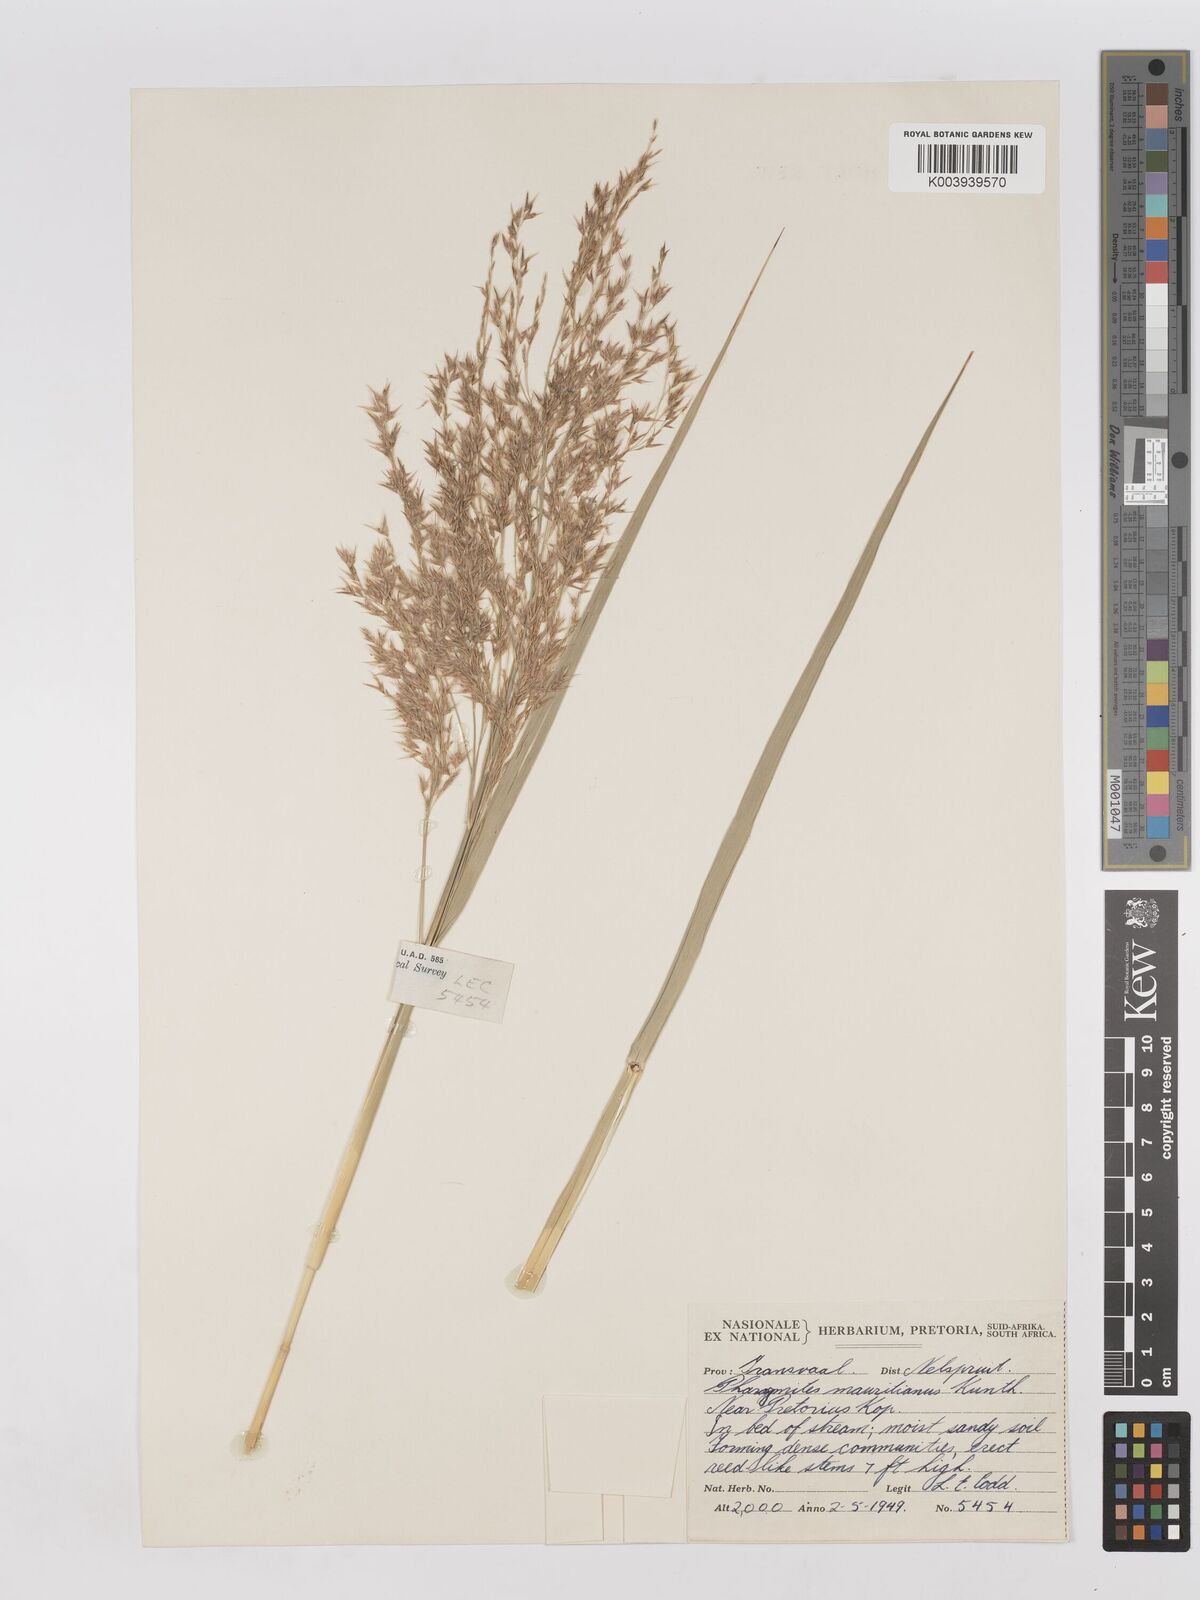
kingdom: Plantae
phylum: Tracheophyta
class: Liliopsida
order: Poales
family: Poaceae
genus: Phragmites
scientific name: Phragmites mauritianus
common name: Reed grass
